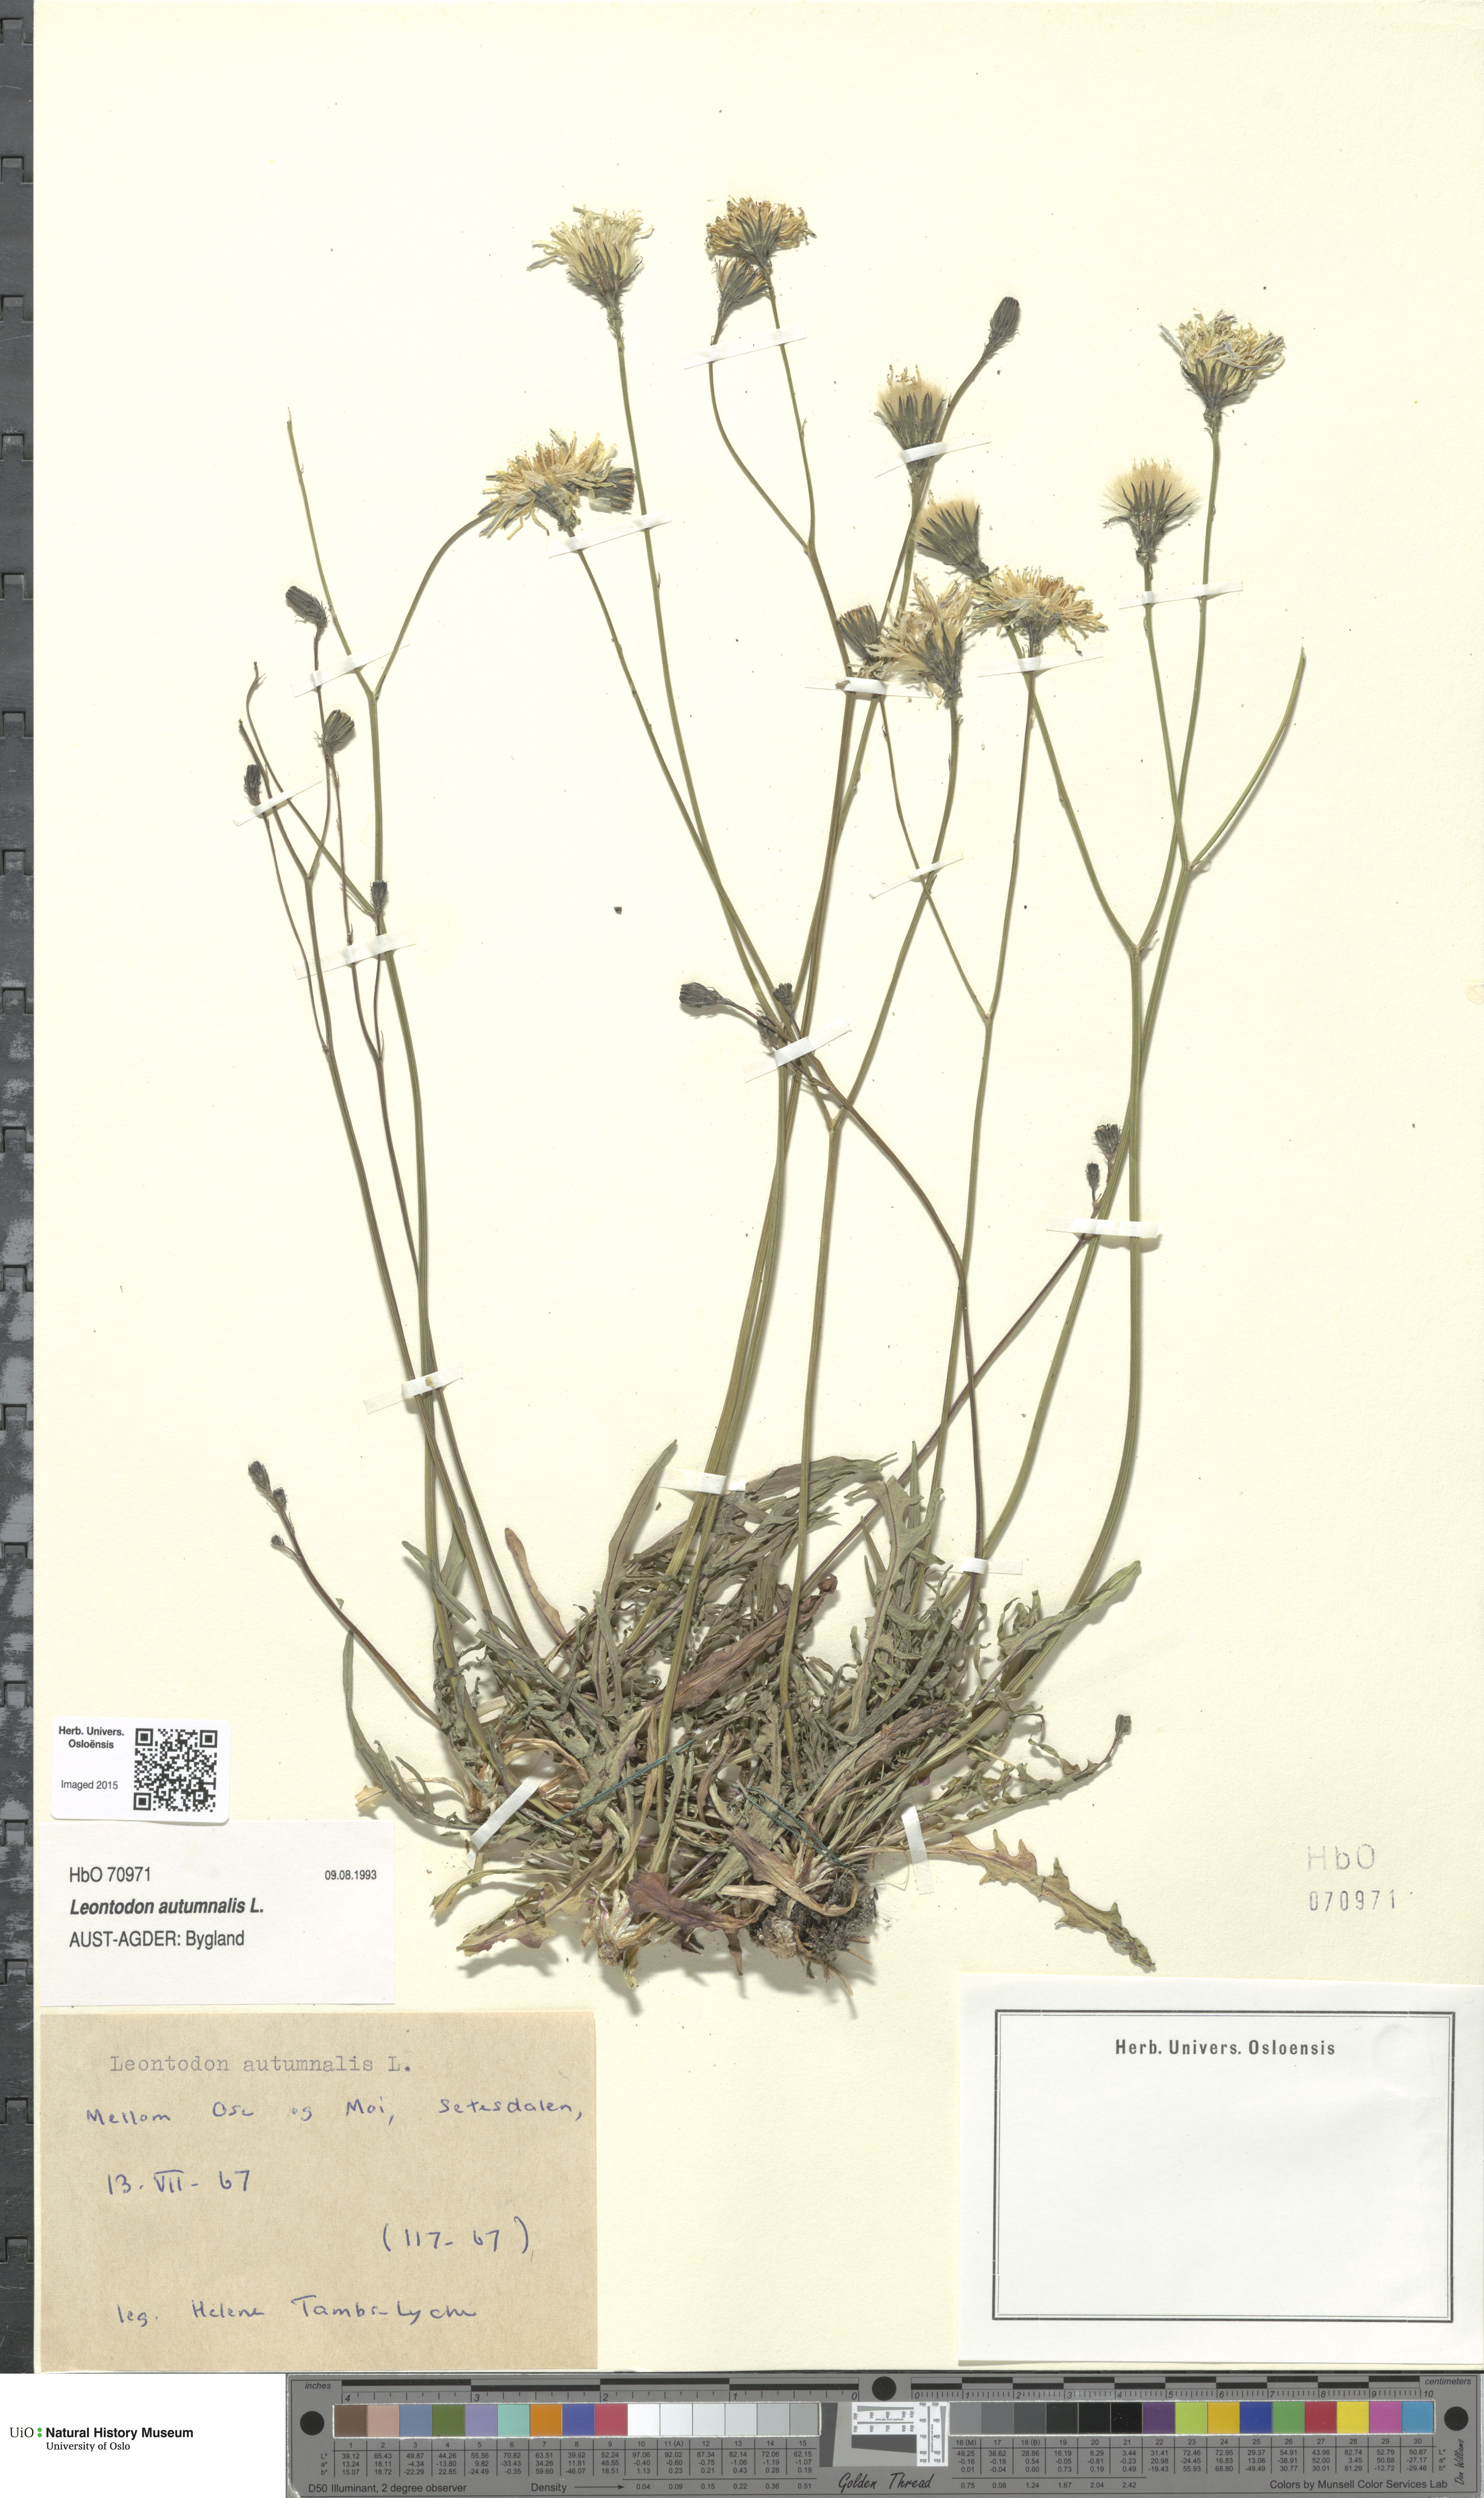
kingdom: Plantae
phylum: Tracheophyta
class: Magnoliopsida
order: Asterales
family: Asteraceae
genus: Scorzoneroides
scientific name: Scorzoneroides autumnalis
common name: Autumn hawkbit
